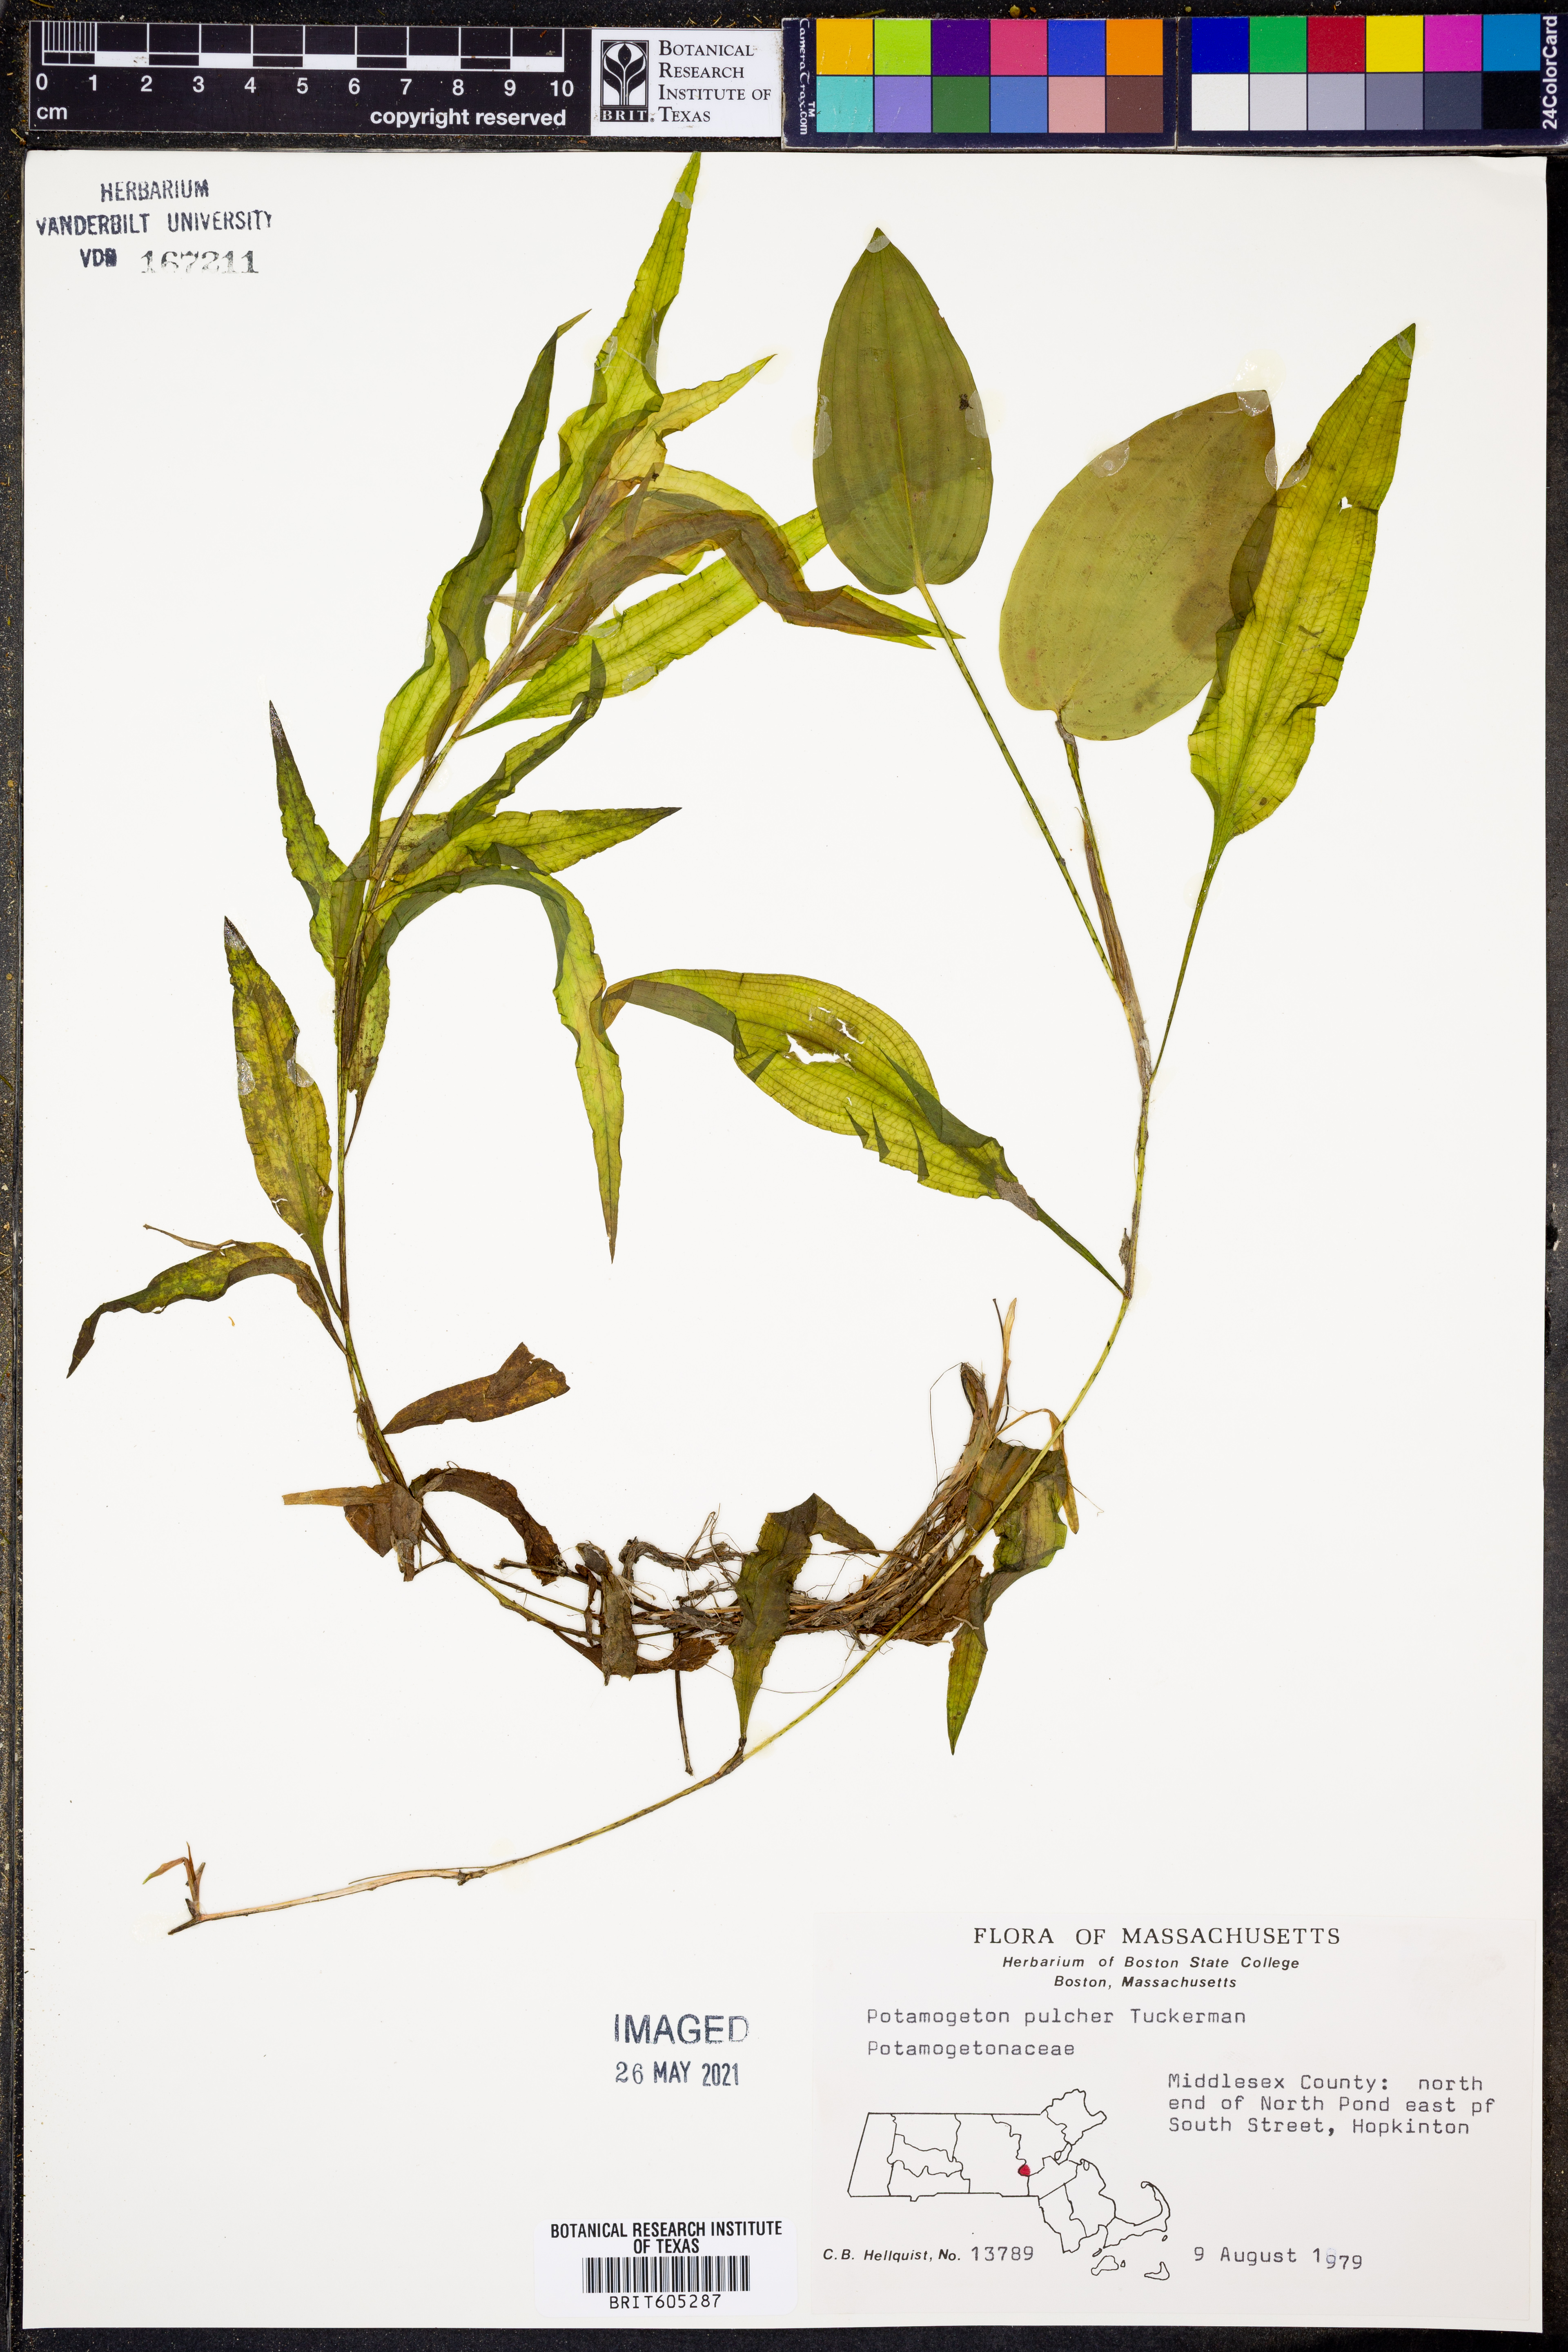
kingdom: Plantae
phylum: Tracheophyta
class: Liliopsida
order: Alismatales
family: Potamogetonaceae
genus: Potamogeton
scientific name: Potamogeton pulcher
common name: Heart-leaved pondweed
